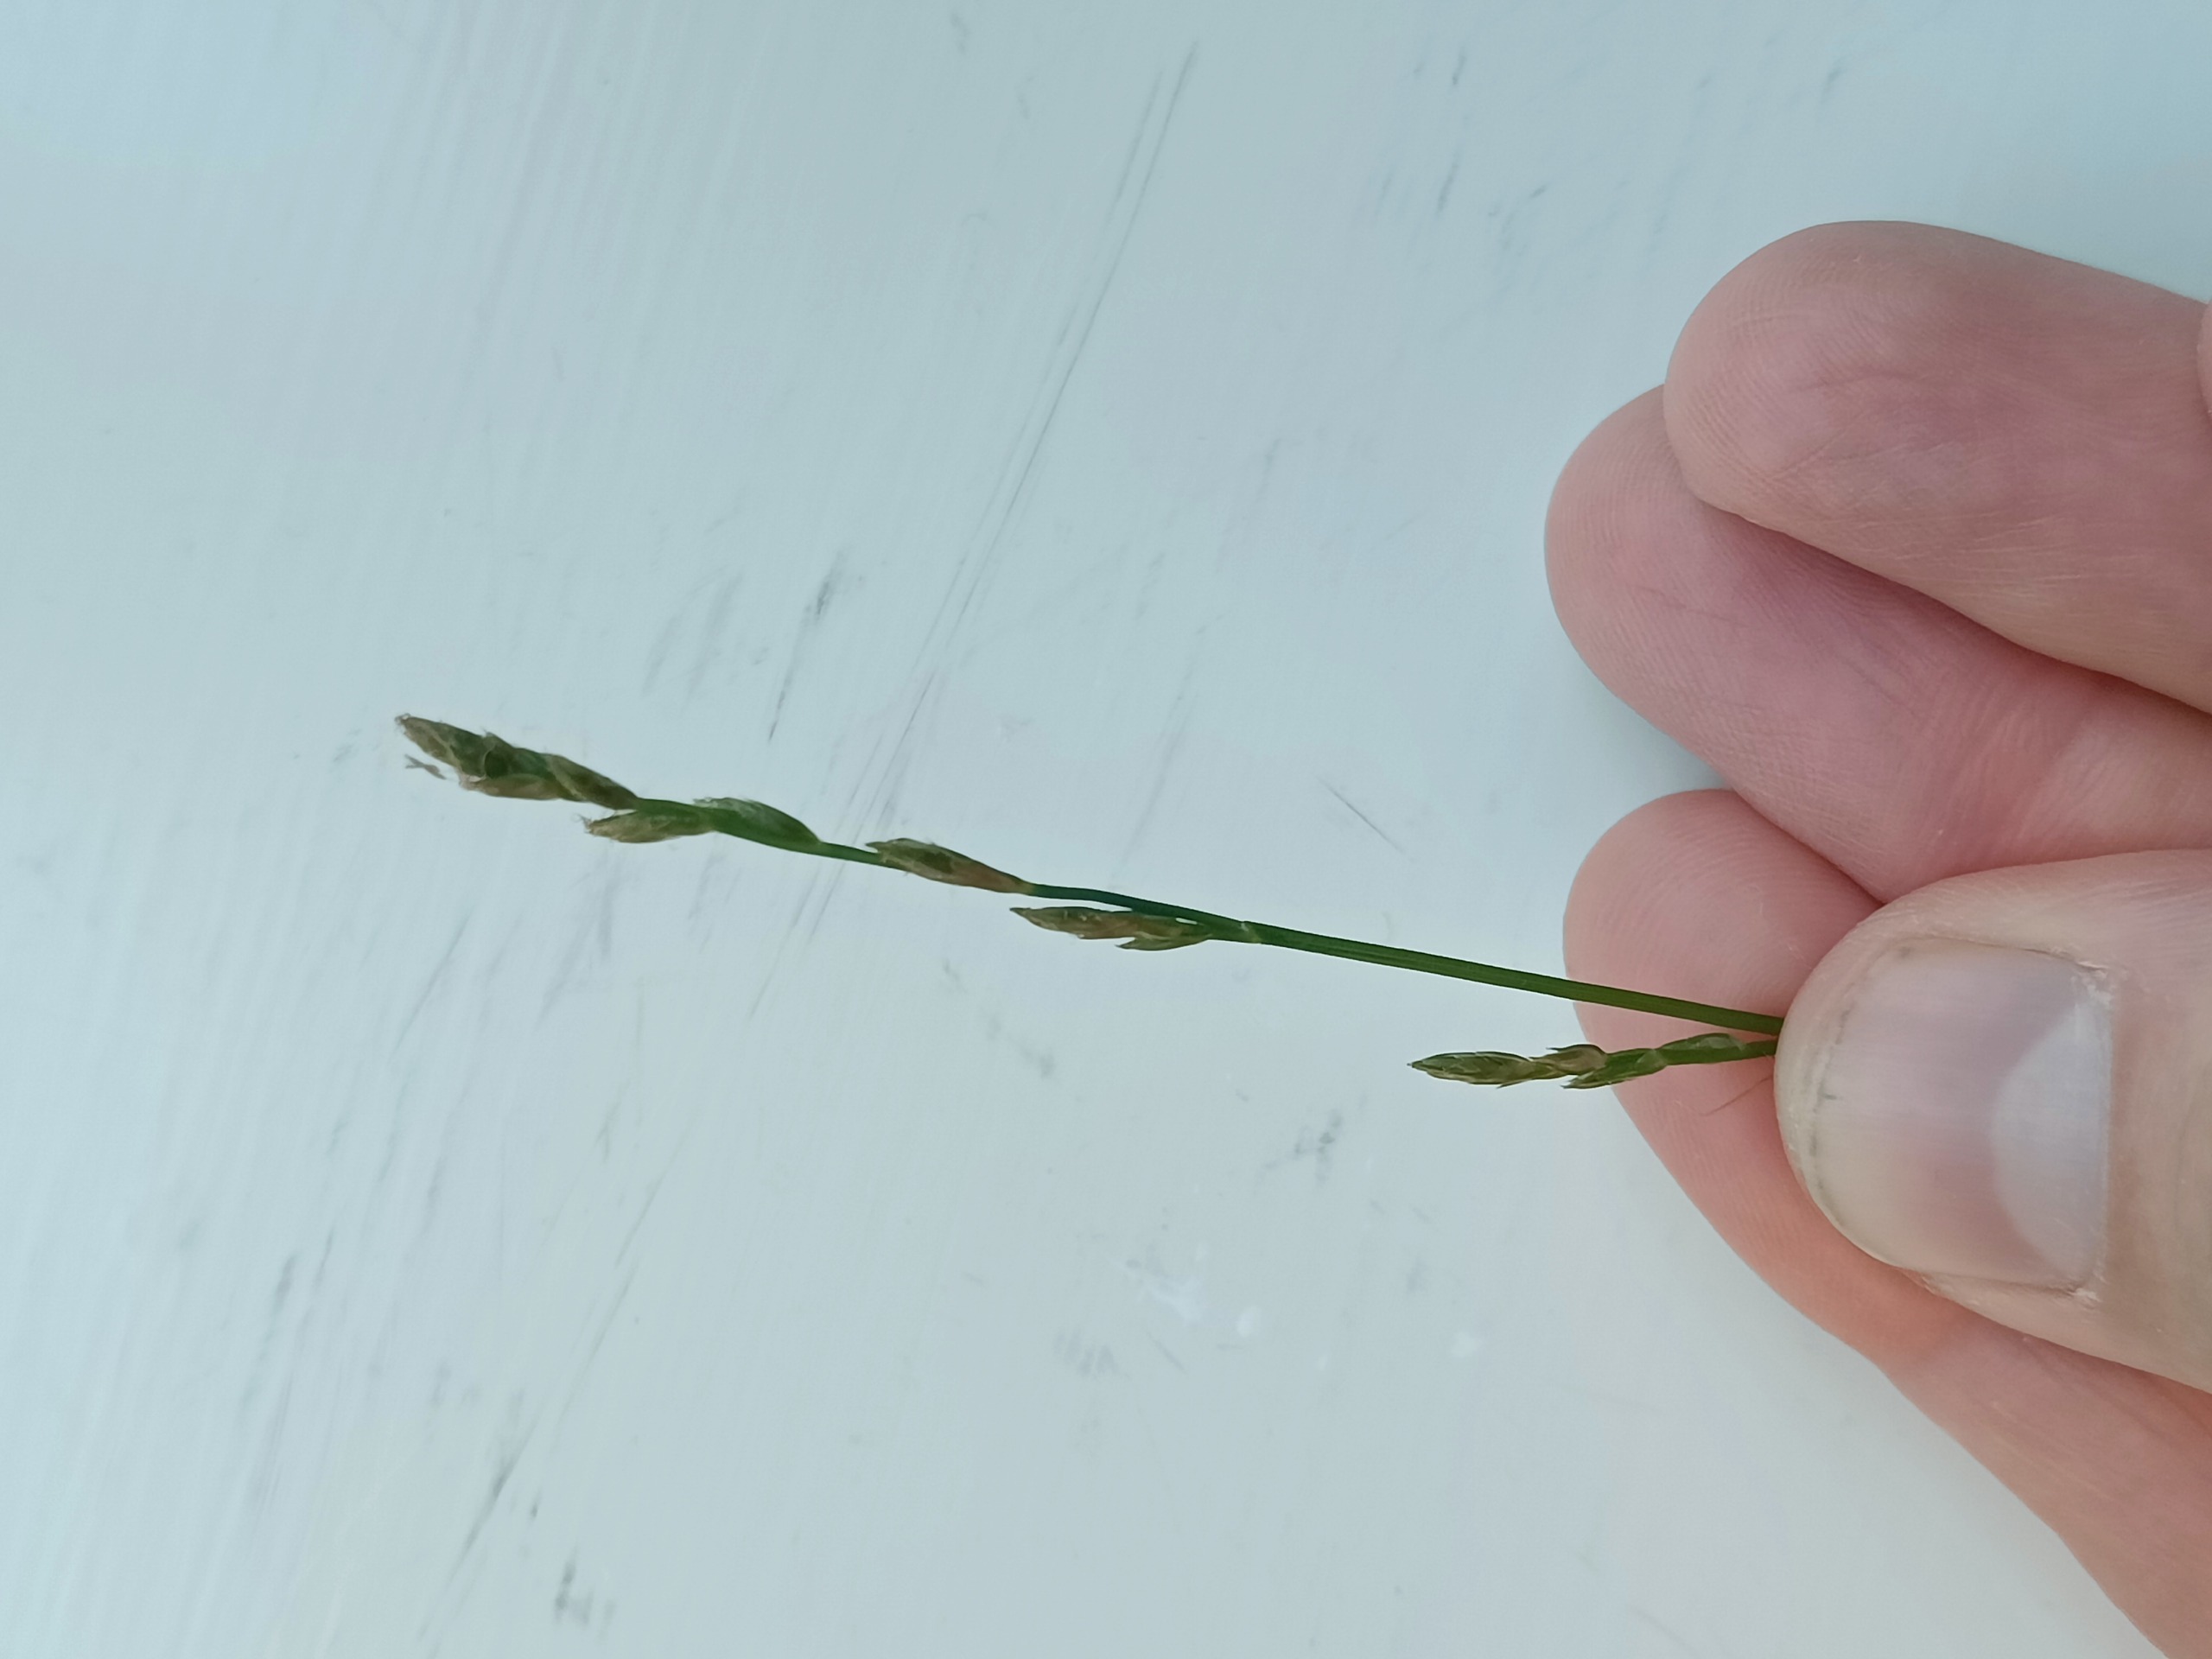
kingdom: Plantae
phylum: Tracheophyta
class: Liliopsida
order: Poales
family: Cyperaceae
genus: Carex
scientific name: Carex divulsa
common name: Mellembrudt star
